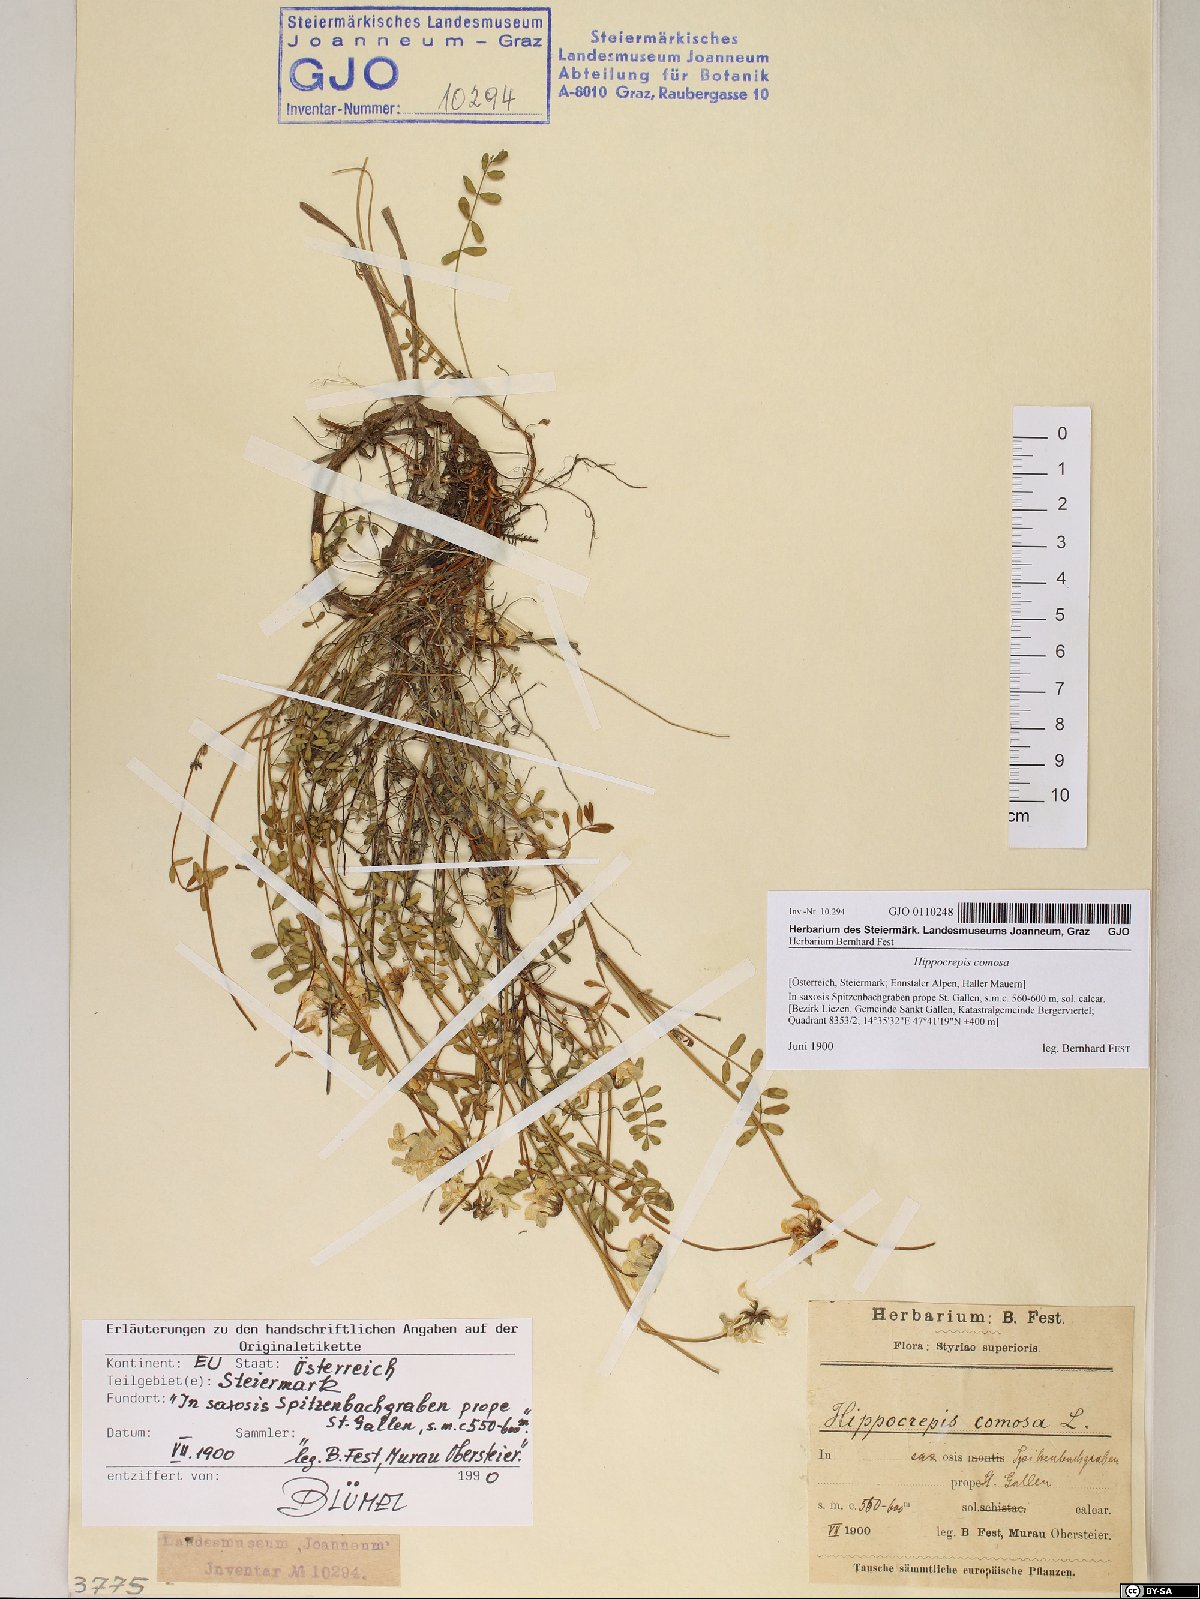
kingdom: Plantae
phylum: Tracheophyta
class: Magnoliopsida
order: Fabales
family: Fabaceae
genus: Hippocrepis
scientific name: Hippocrepis comosa
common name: Horseshoe vetch
